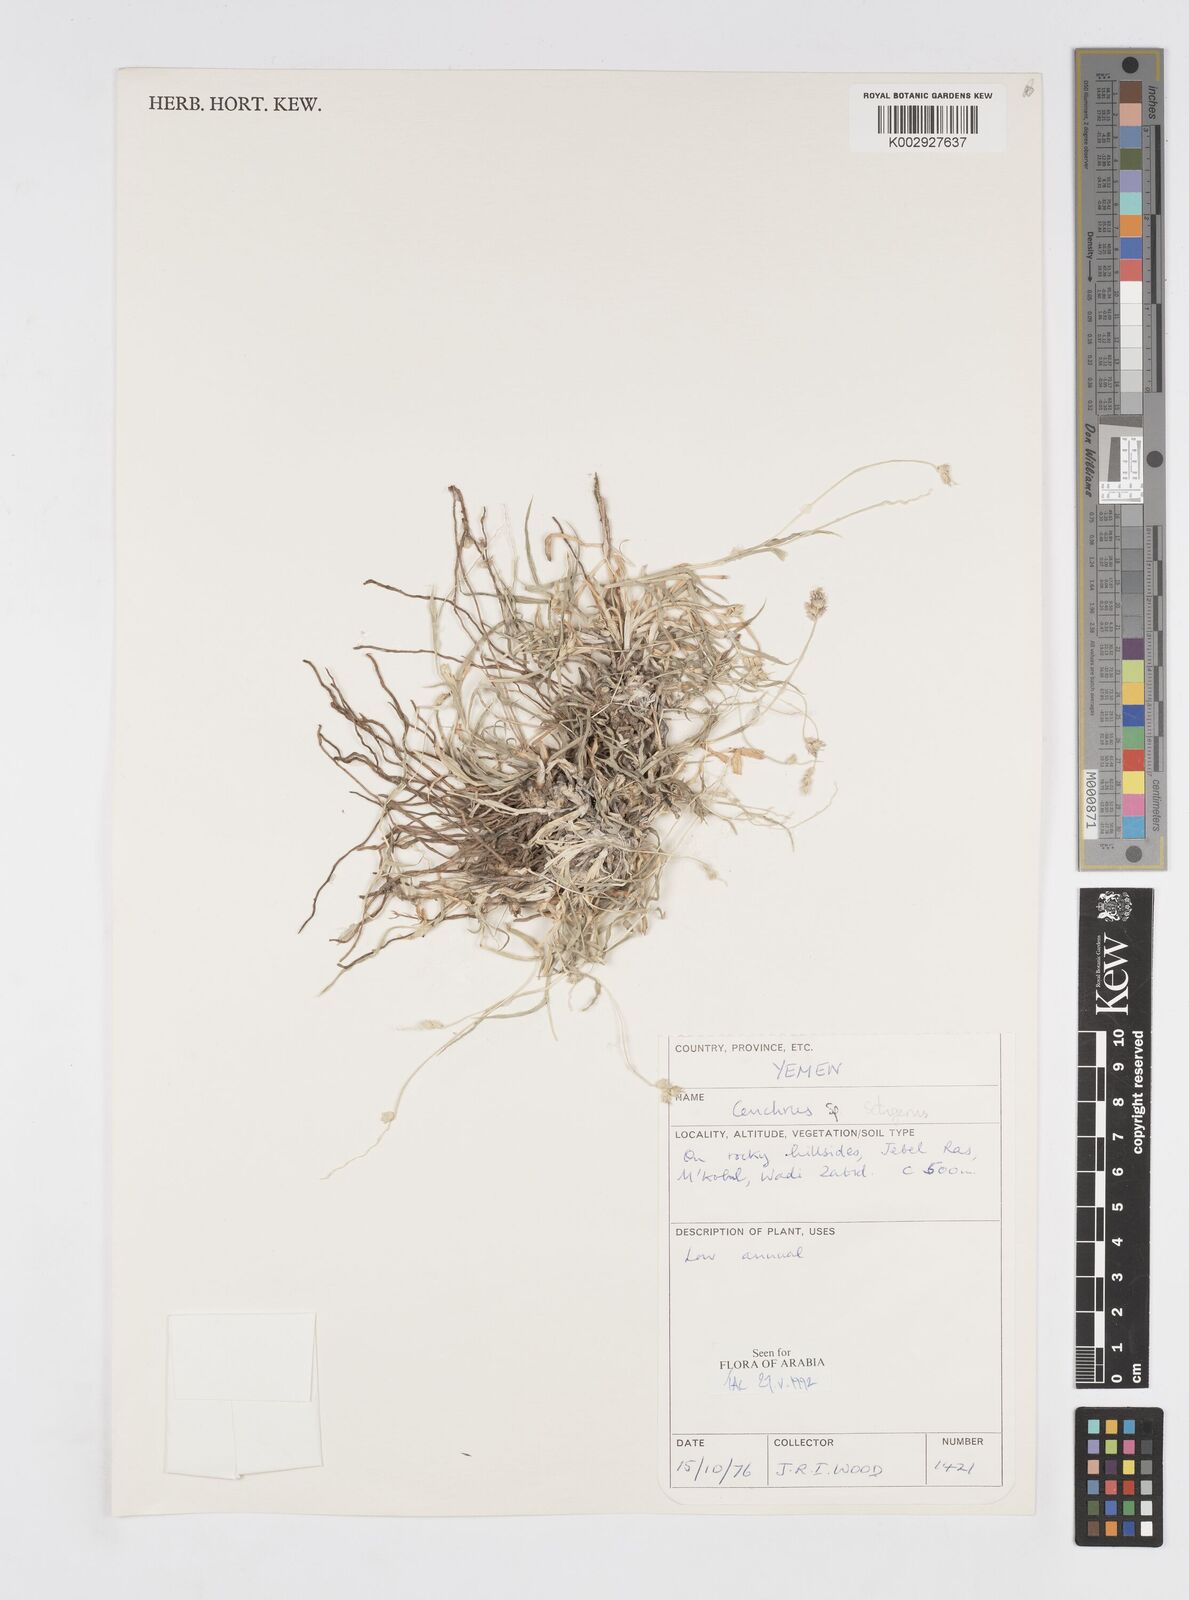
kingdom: Plantae
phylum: Tracheophyta
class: Liliopsida
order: Poales
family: Poaceae
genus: Cenchrus
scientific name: Cenchrus setigerus
